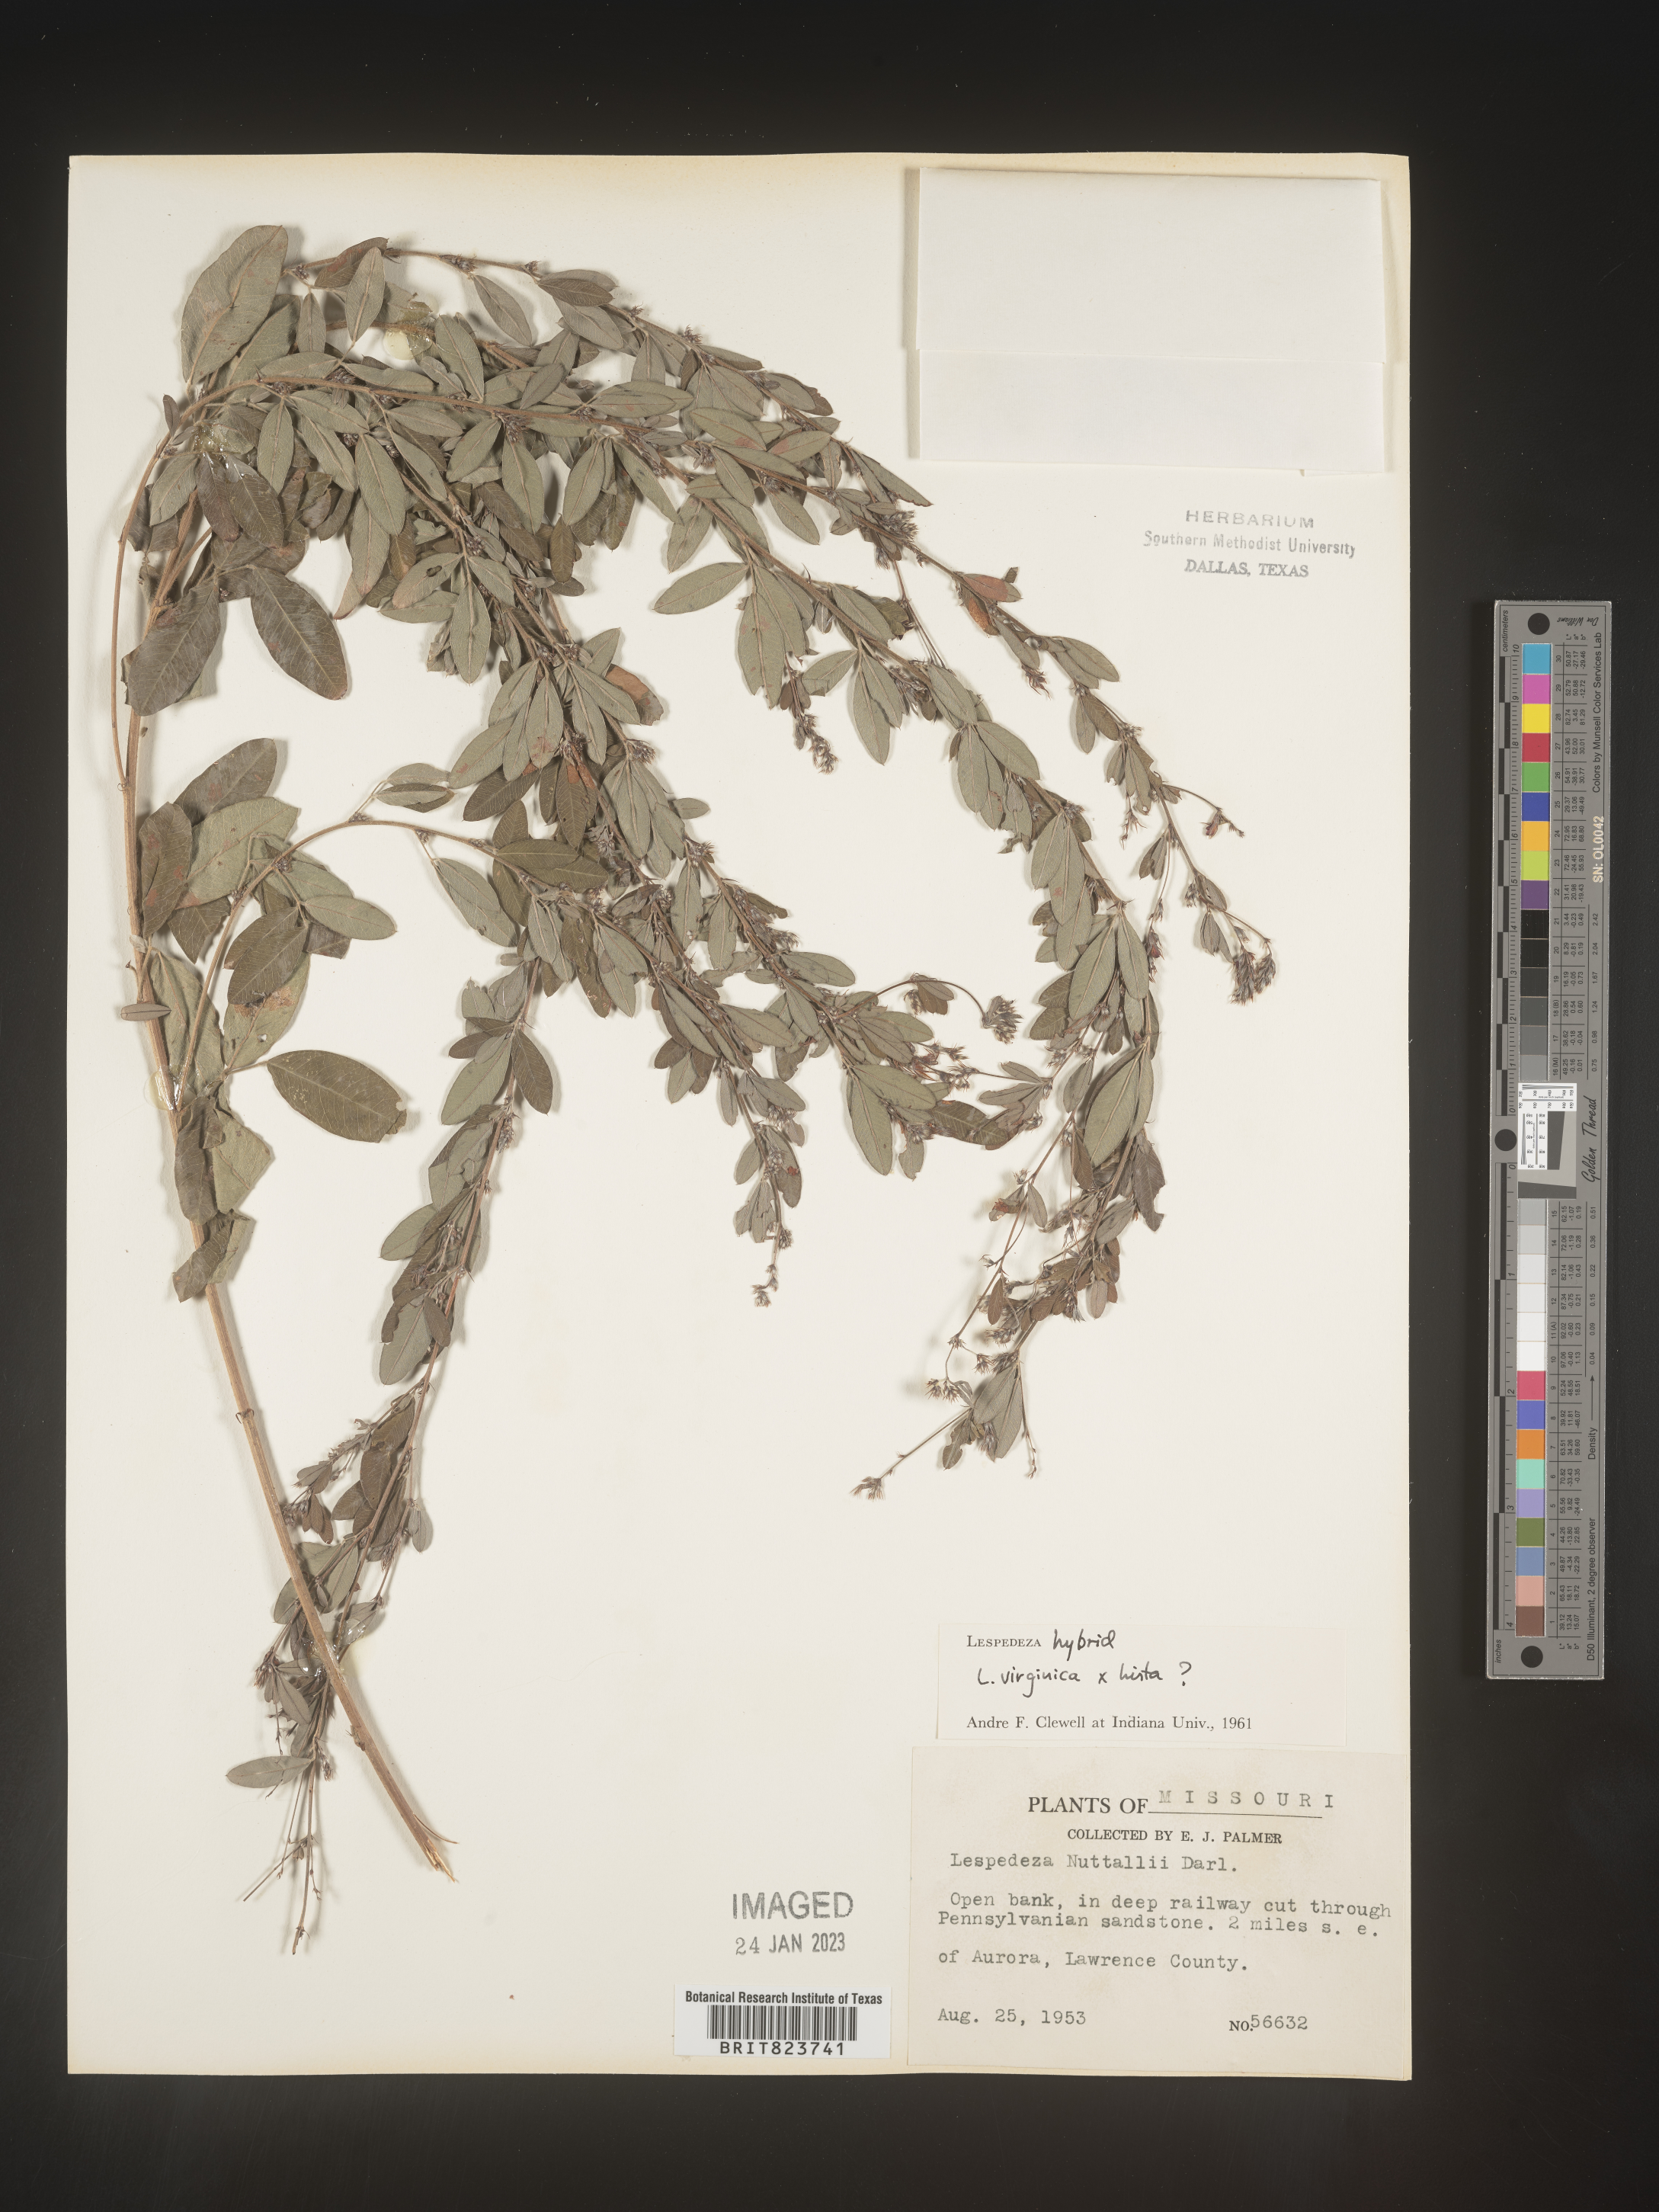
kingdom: Plantae
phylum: Tracheophyta
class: Magnoliopsida
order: Fabales
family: Fabaceae
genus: Lespedeza
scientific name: Lespedeza virginica
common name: Slender bush-clover
